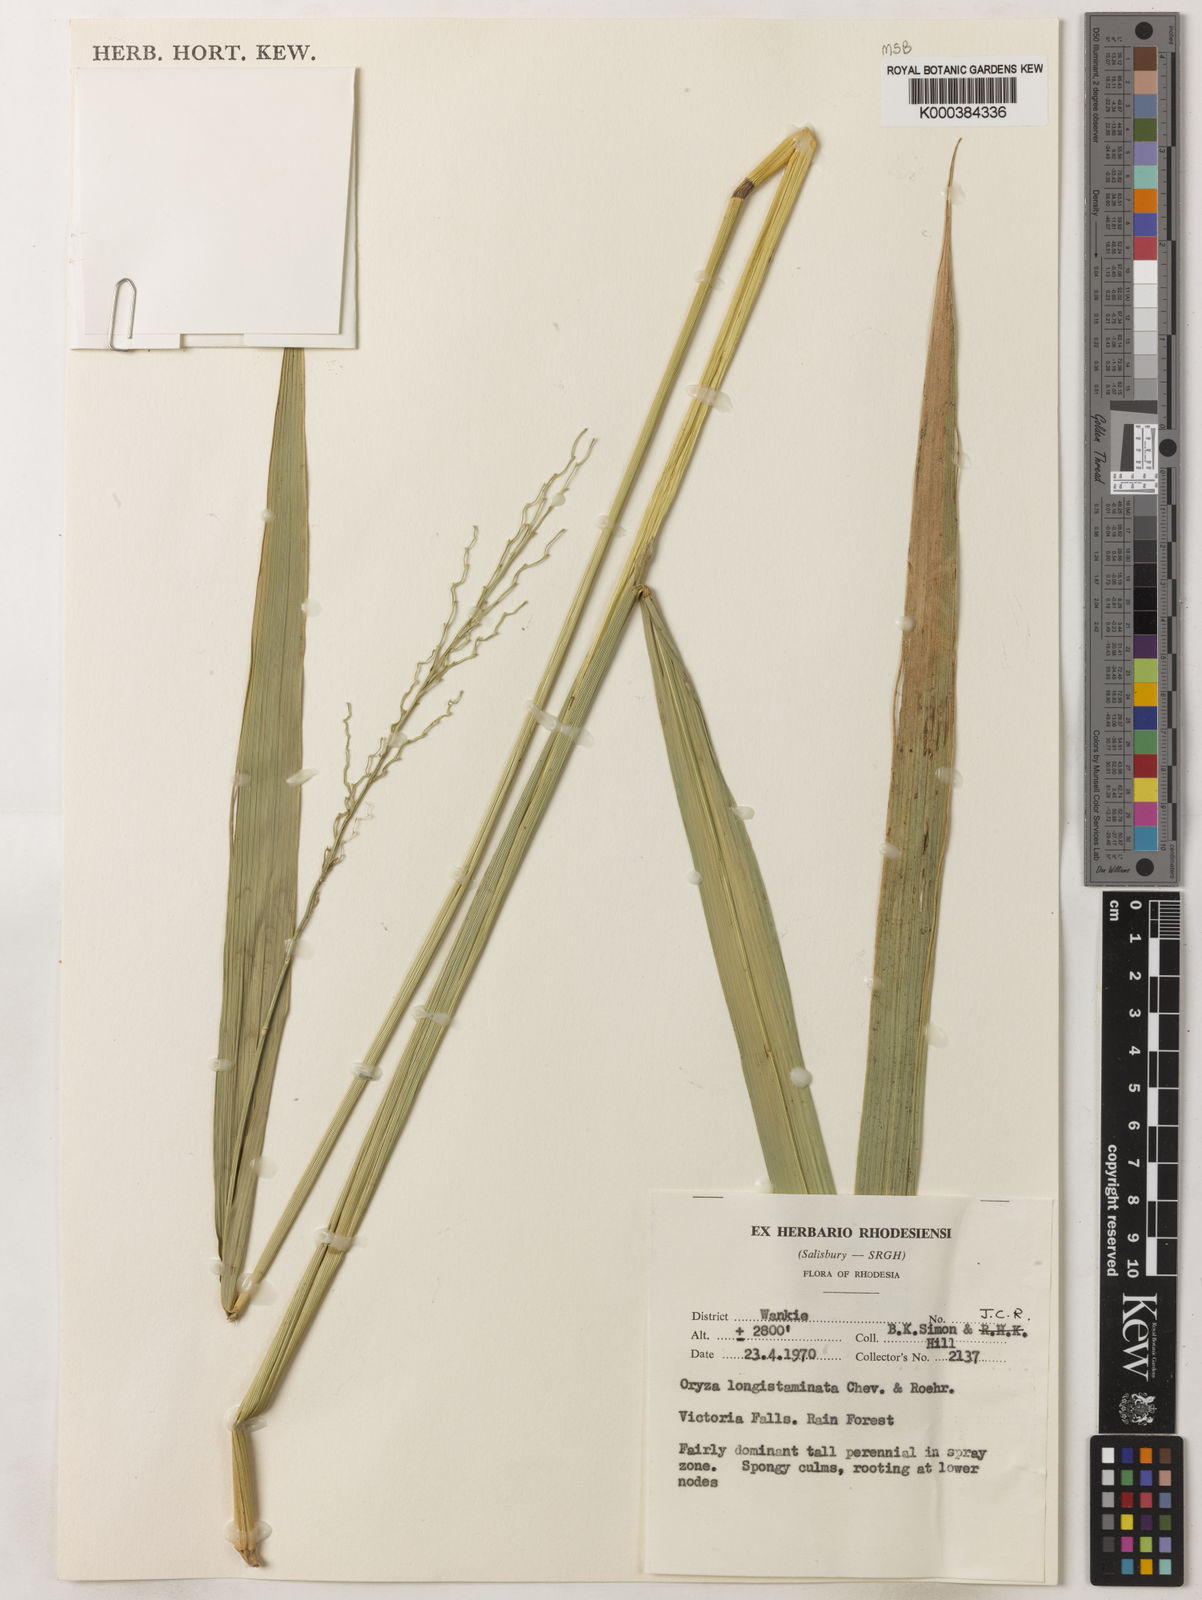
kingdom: Plantae
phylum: Tracheophyta
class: Liliopsida
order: Poales
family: Poaceae
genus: Oryza
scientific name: Oryza longistaminata
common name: Red rice
